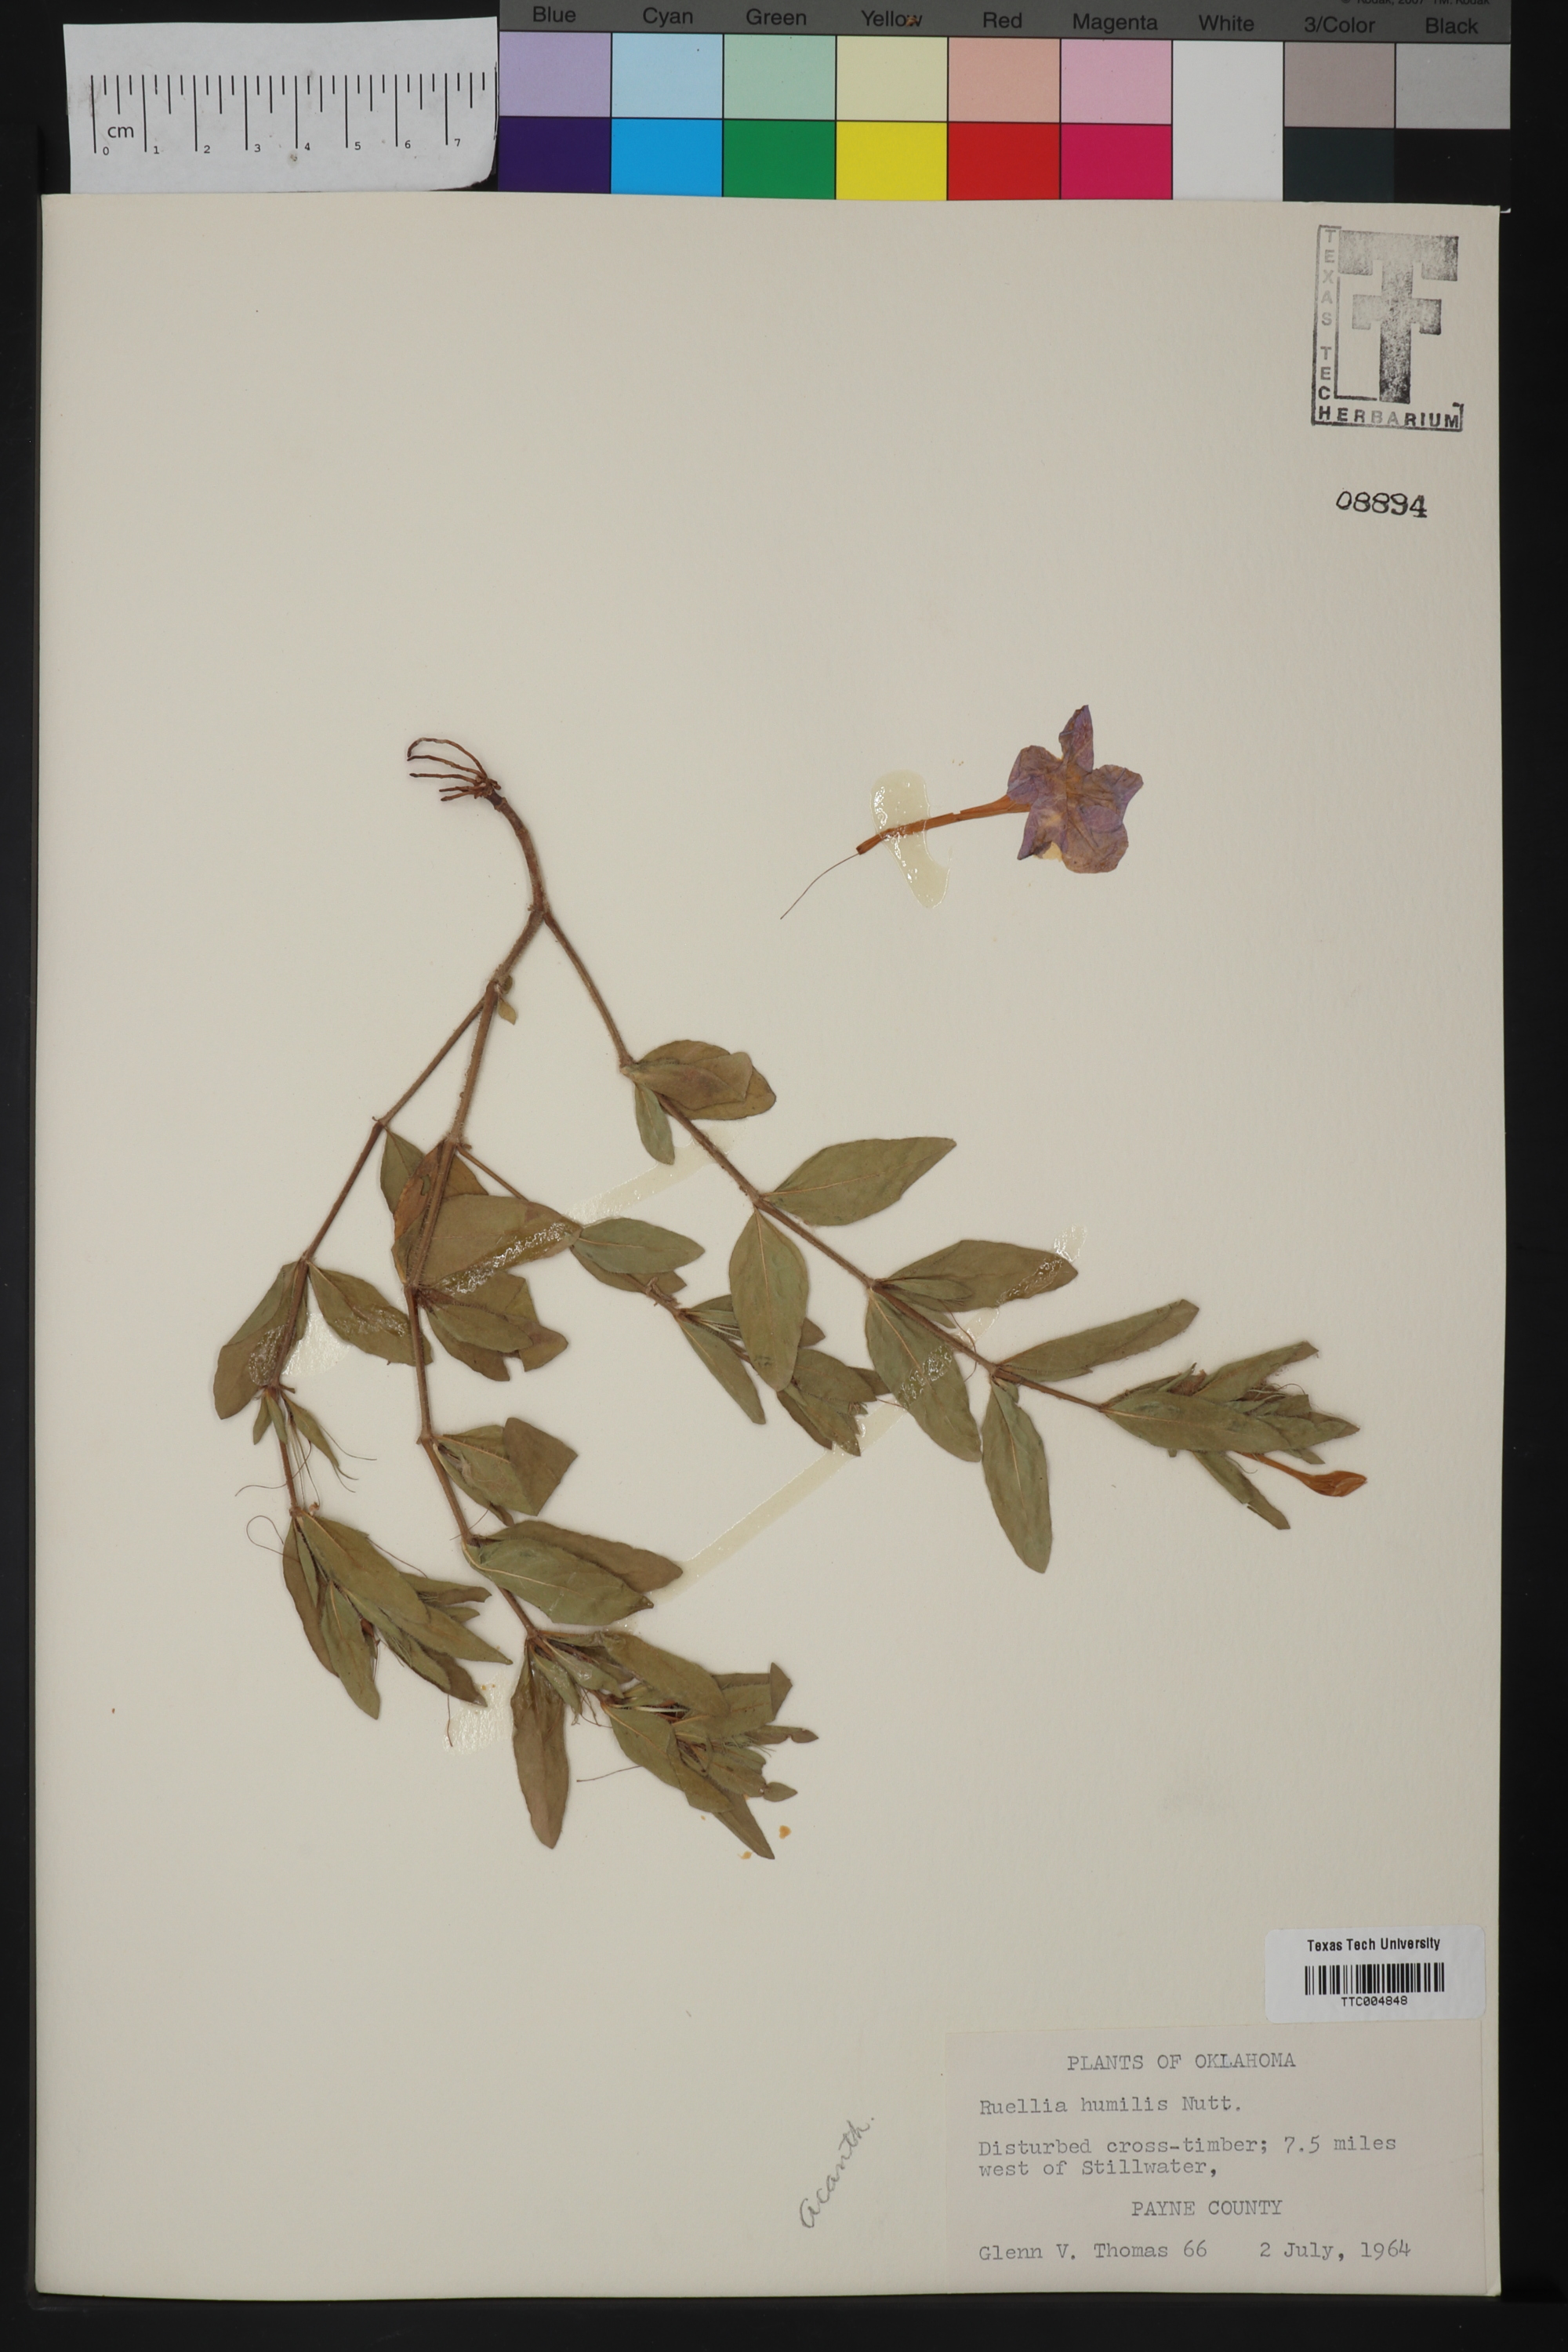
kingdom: Plantae
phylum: Tracheophyta
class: Magnoliopsida
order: Lamiales
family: Acanthaceae
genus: Ruellia
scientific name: Ruellia humilis
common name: Fringe-leaf ruellia
